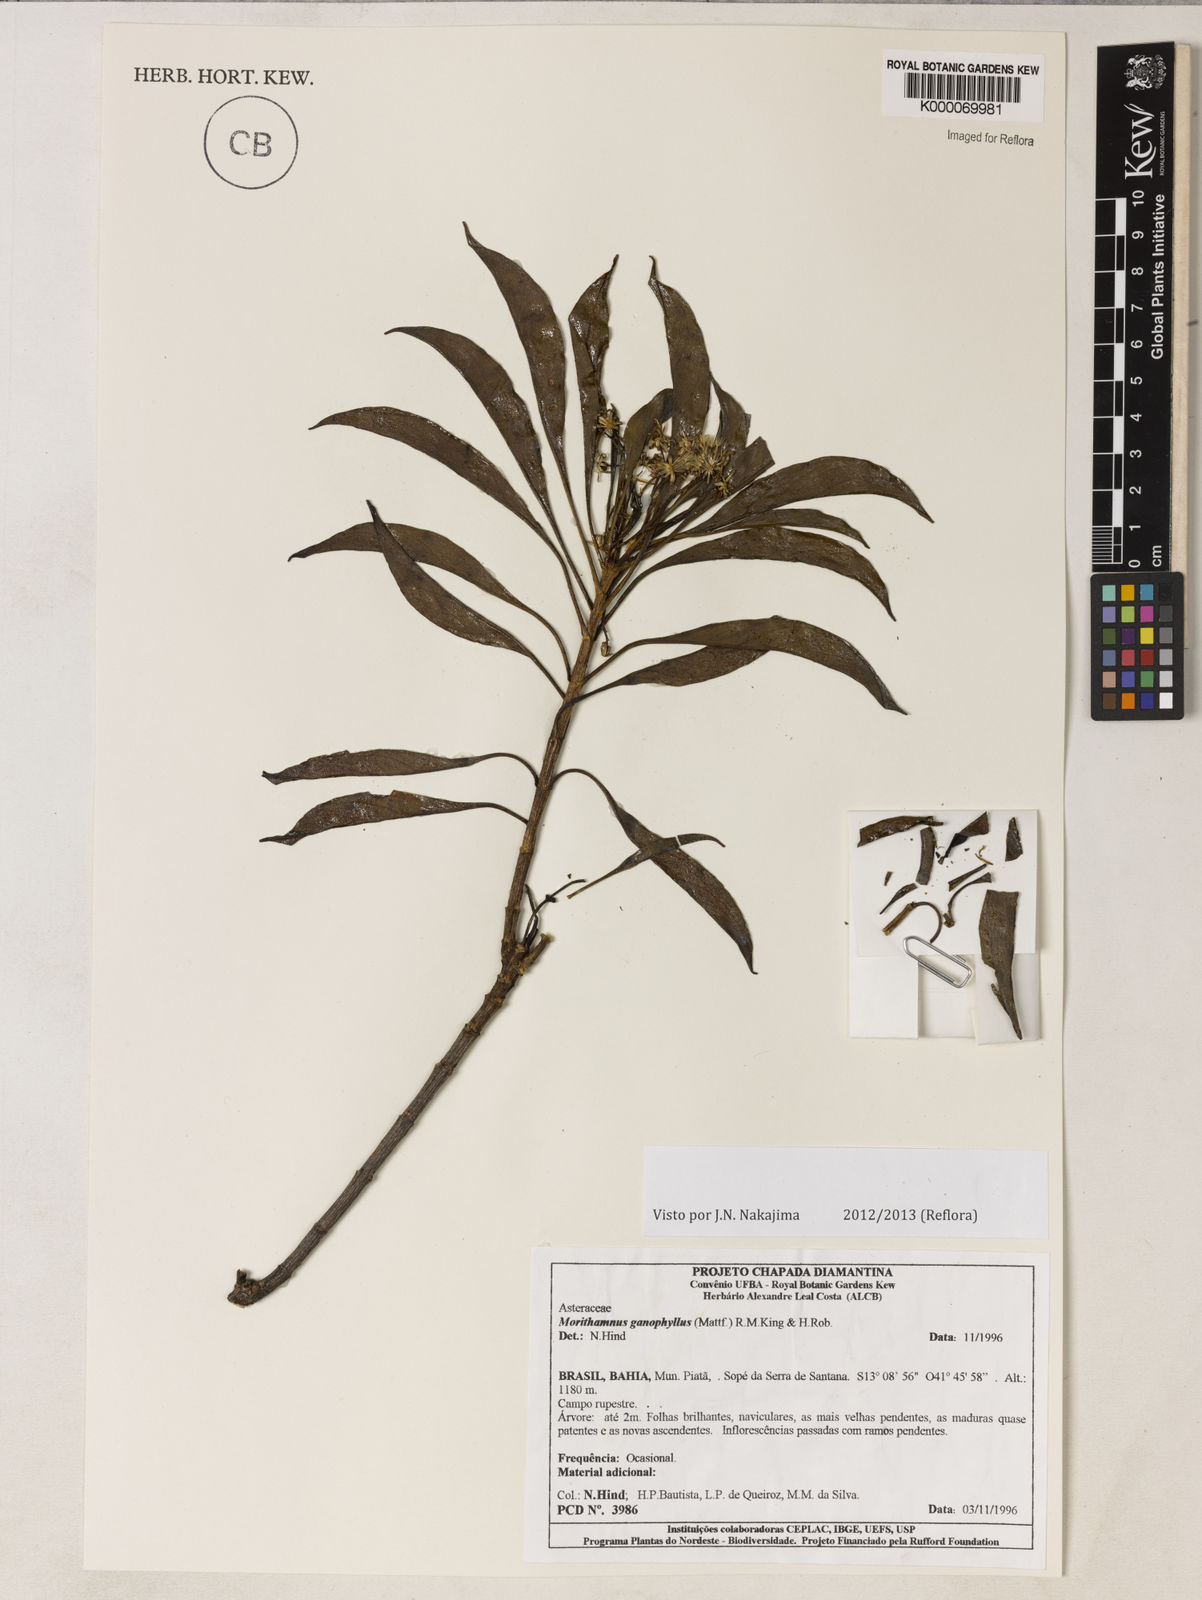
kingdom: Plantae
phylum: Tracheophyta
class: Magnoliopsida
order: Asterales
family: Asteraceae
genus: Morithamnus
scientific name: Morithamnus ganophyllus
